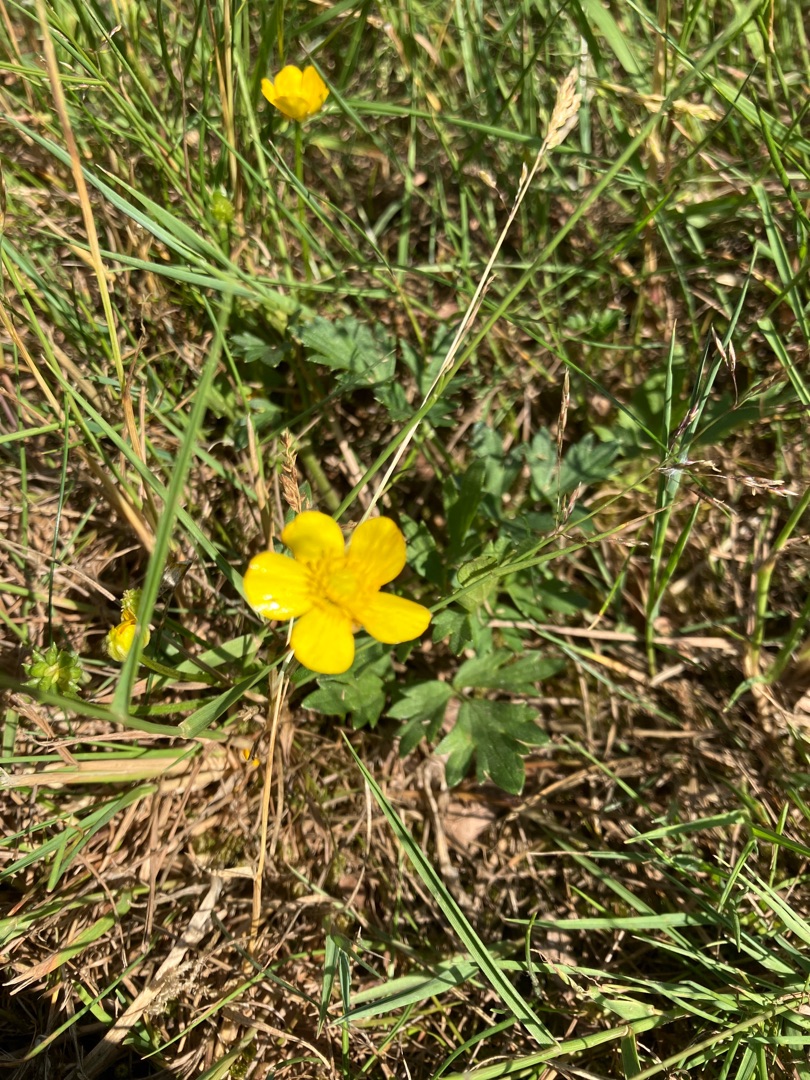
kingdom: Plantae
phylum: Tracheophyta
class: Magnoliopsida
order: Ranunculales
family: Ranunculaceae
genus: Ranunculus
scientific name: Ranunculus repens
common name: Lav ranunkel
